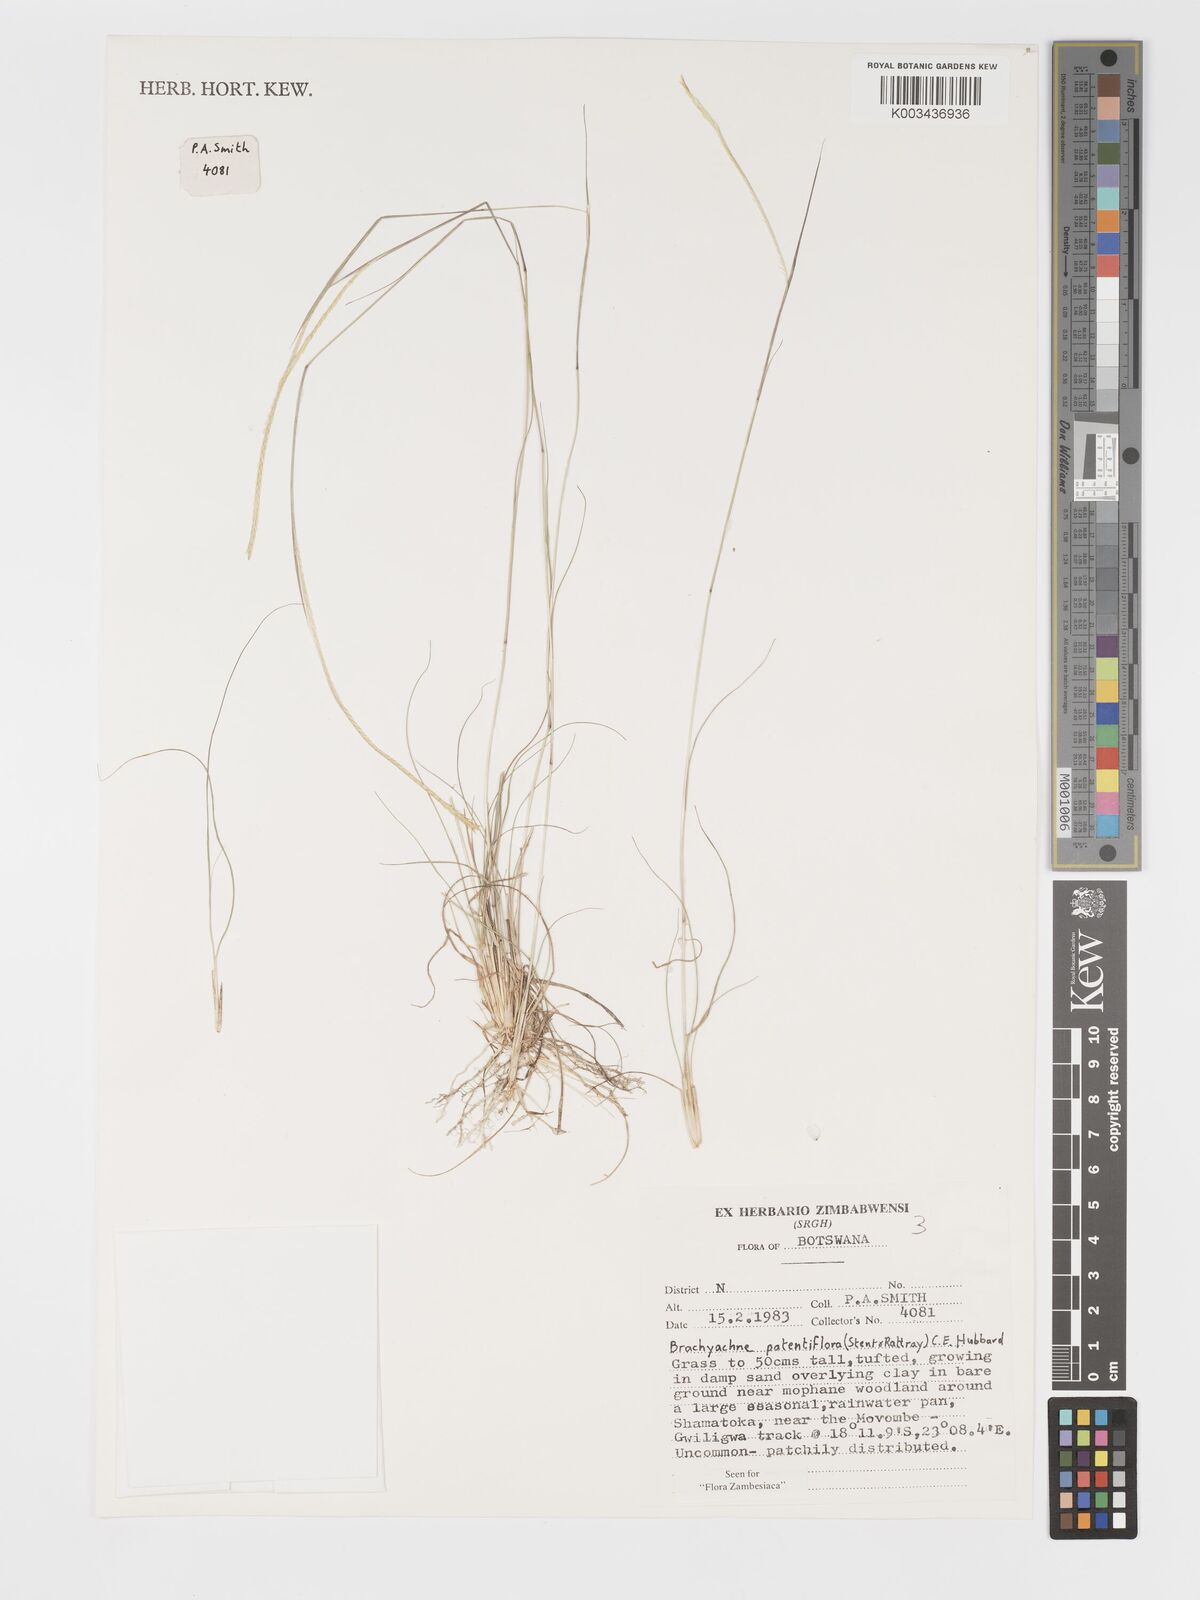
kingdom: Plantae
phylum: Tracheophyta
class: Liliopsida
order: Poales
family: Poaceae
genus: Micrachne
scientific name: Micrachne patentiflora
